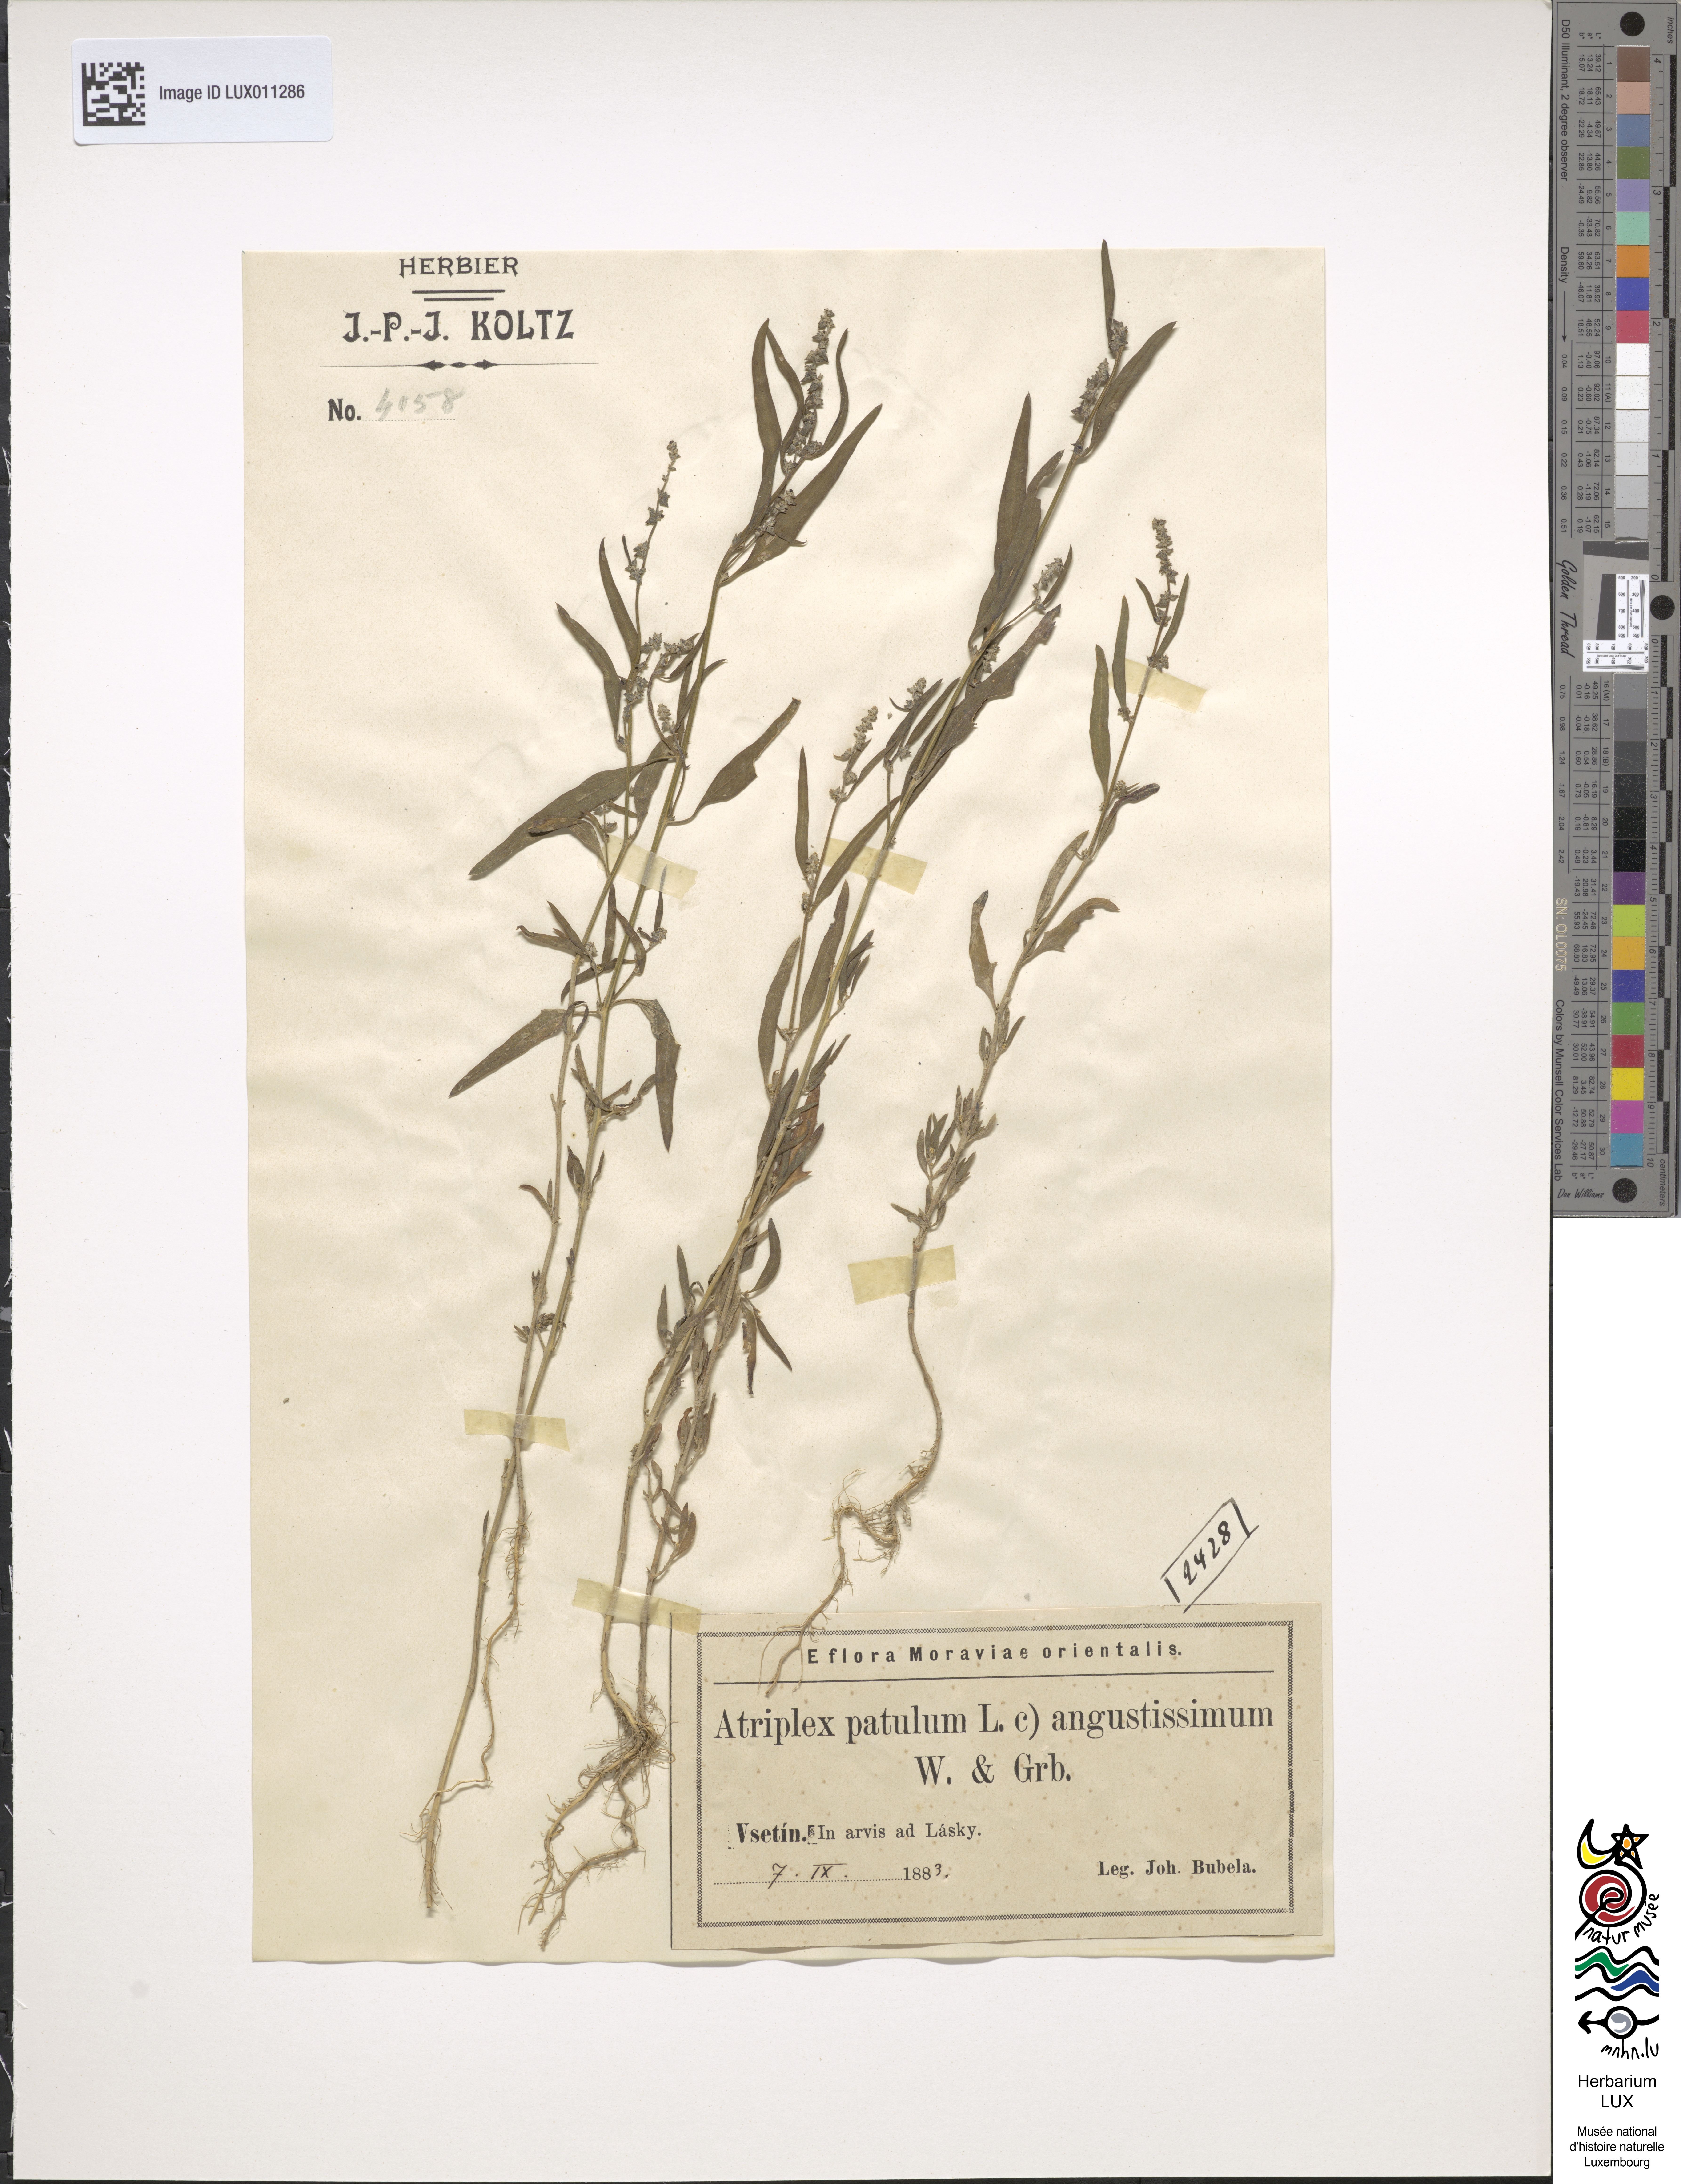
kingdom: Plantae
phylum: Tracheophyta
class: Magnoliopsida
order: Caryophyllales
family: Amaranthaceae
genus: Atriplex
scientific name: Atriplex patula
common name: Common orache
